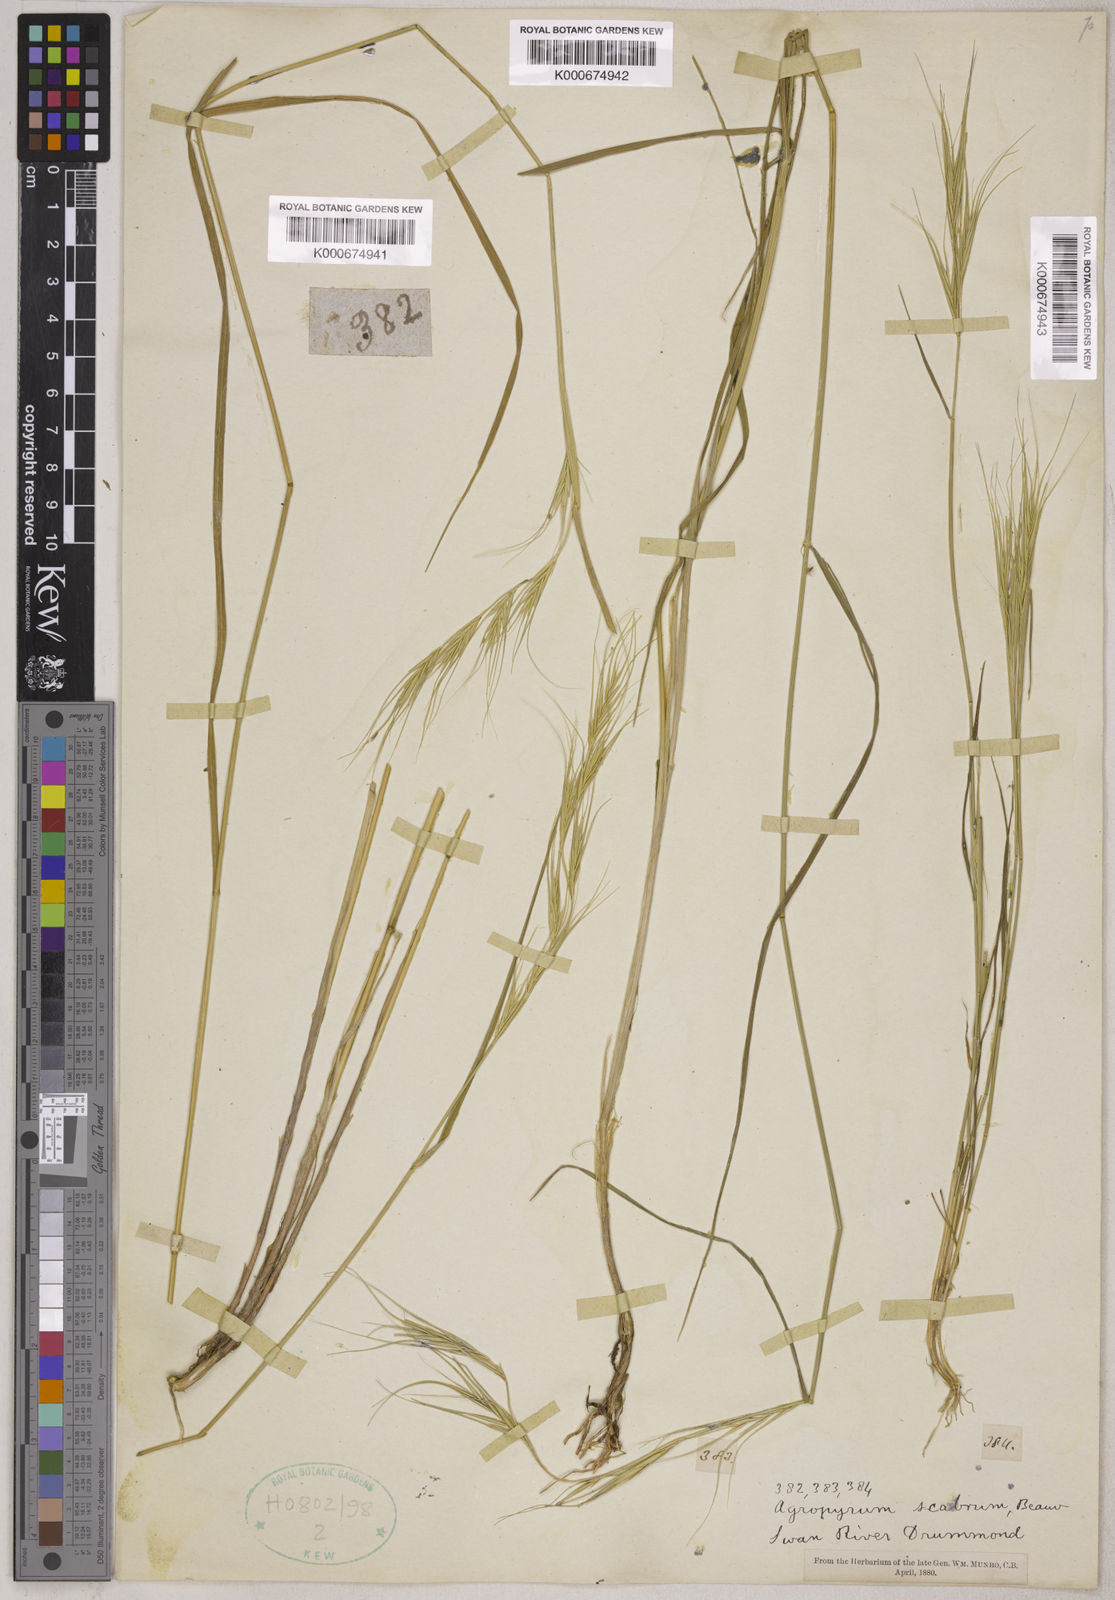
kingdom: Plantae
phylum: Tracheophyta
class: Liliopsida
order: Poales
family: Poaceae
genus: Elymus
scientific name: Elymus
